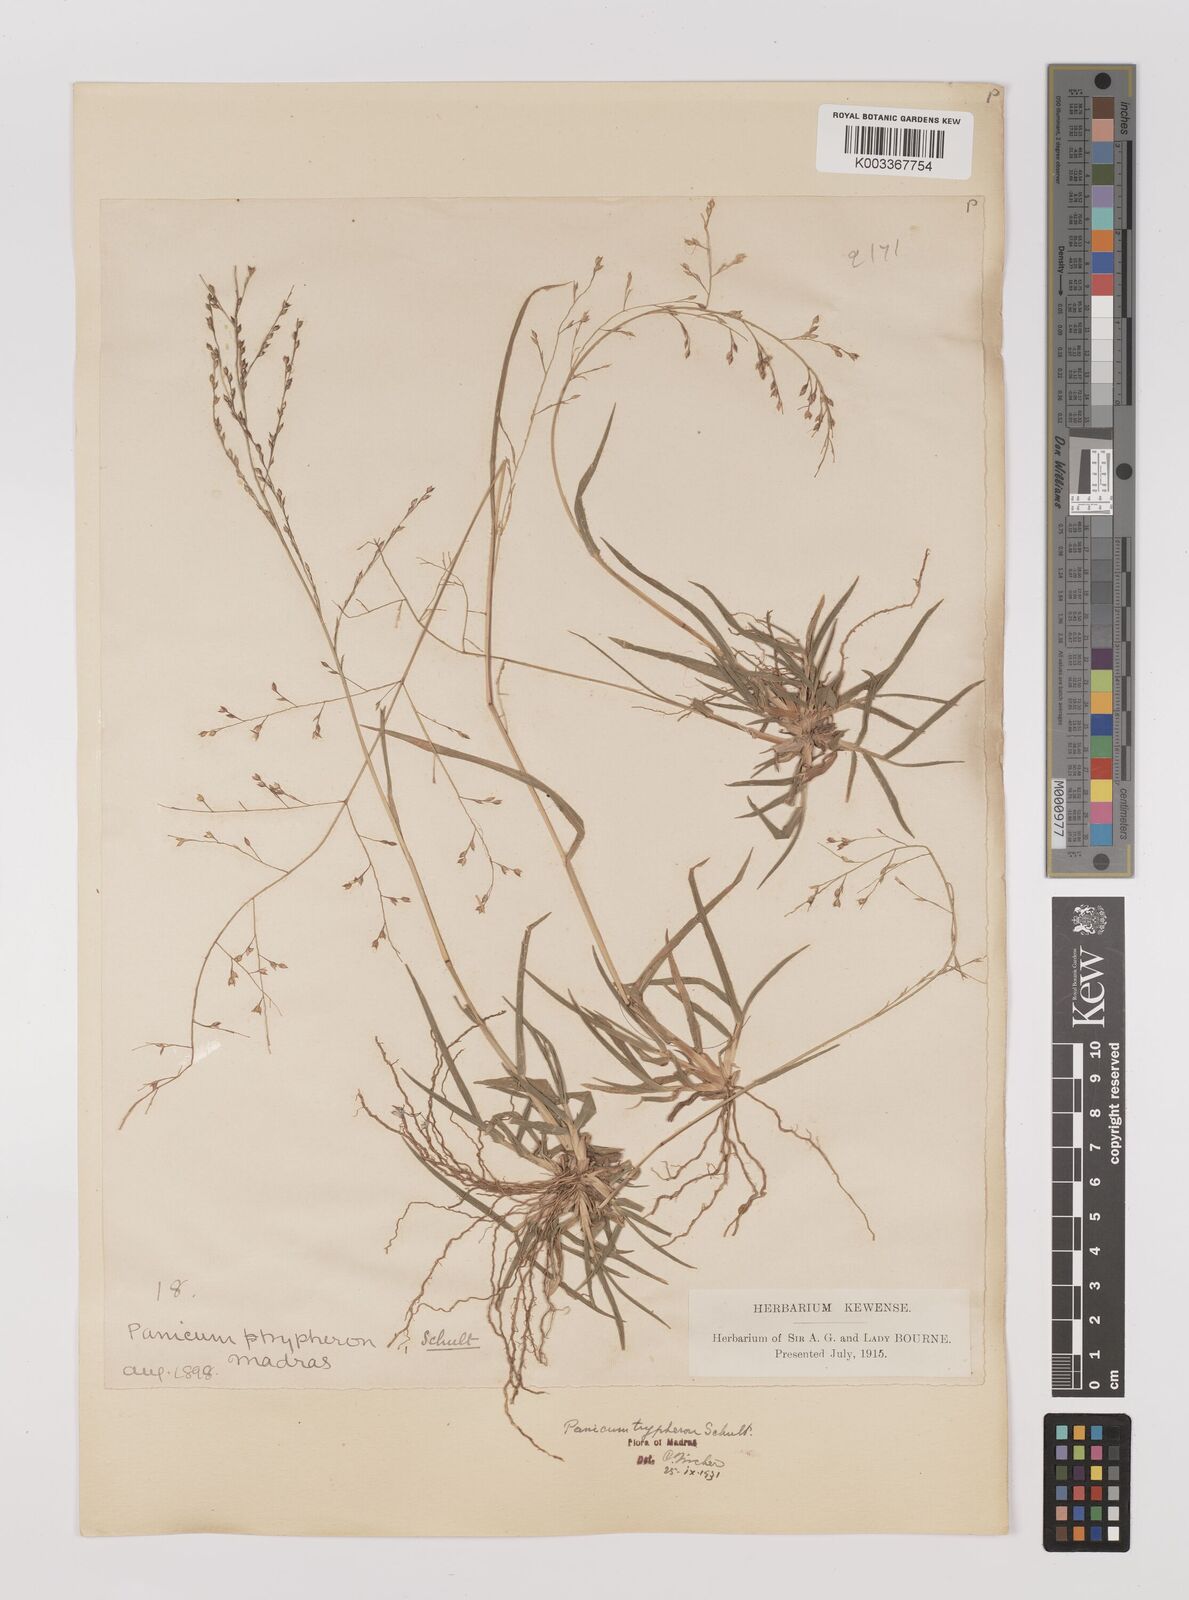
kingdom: Plantae
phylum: Tracheophyta
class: Liliopsida
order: Poales
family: Poaceae
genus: Panicum
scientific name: Panicum curviflorum
